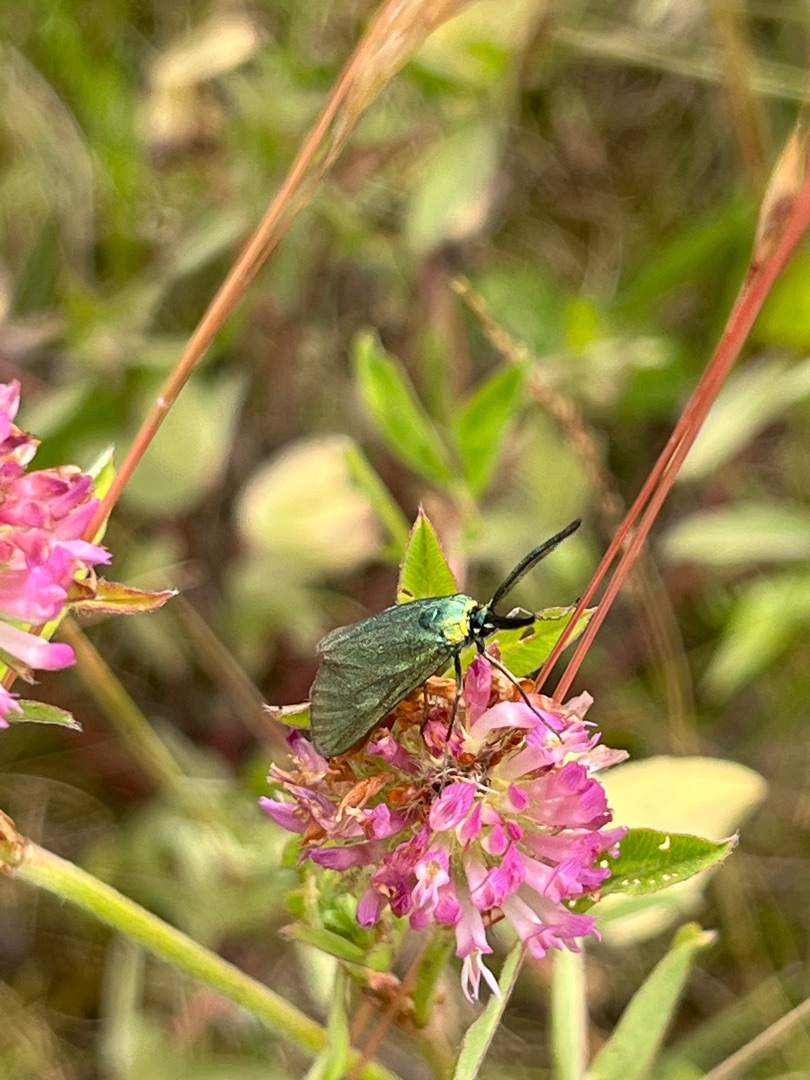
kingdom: Animalia
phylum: Arthropoda
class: Insecta
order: Lepidoptera
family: Zygaenidae
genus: Adscita
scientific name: Adscita statices
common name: Metalvinge
